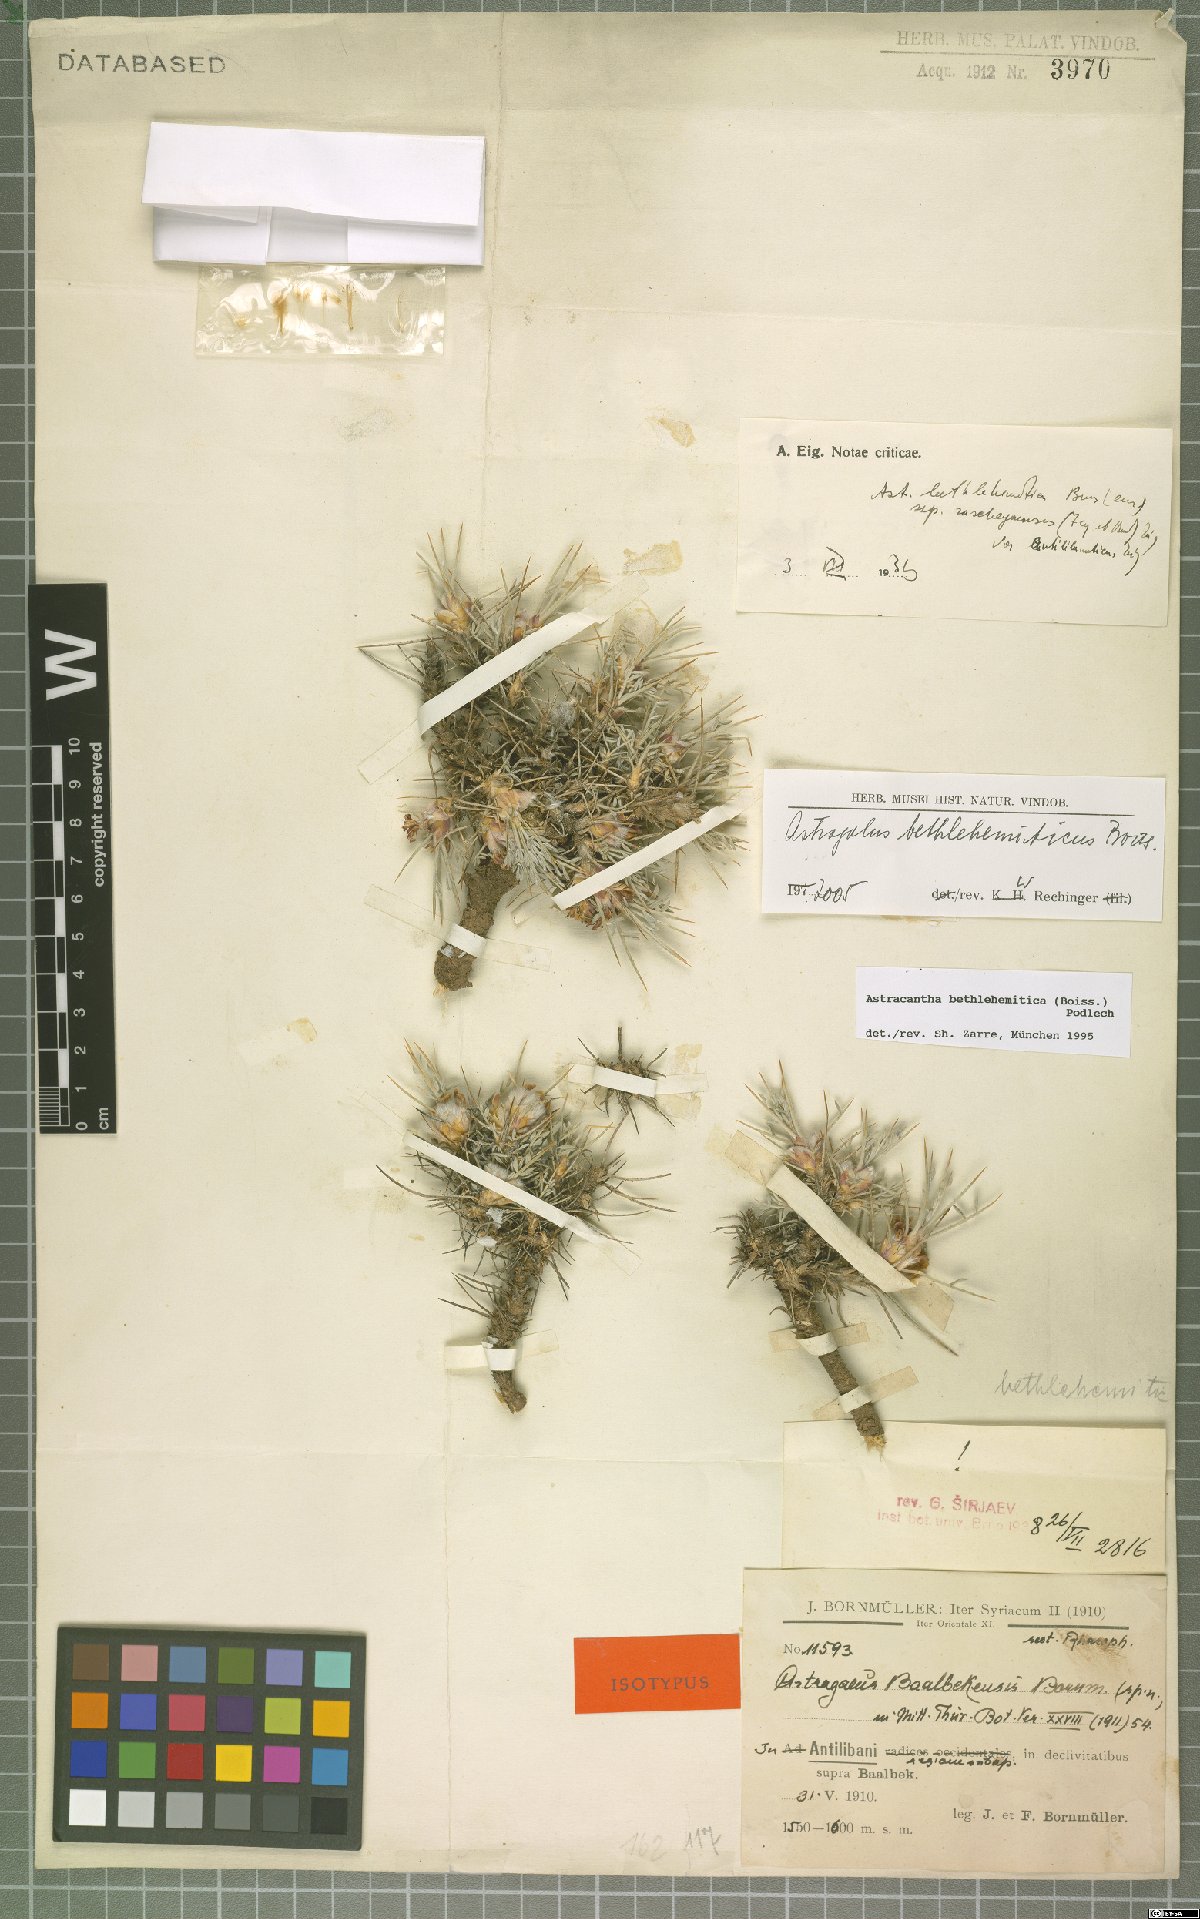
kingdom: Plantae
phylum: Tracheophyta
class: Magnoliopsida
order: Fabales
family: Fabaceae
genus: Astragalus
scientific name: Astragalus bethlehemiticus
